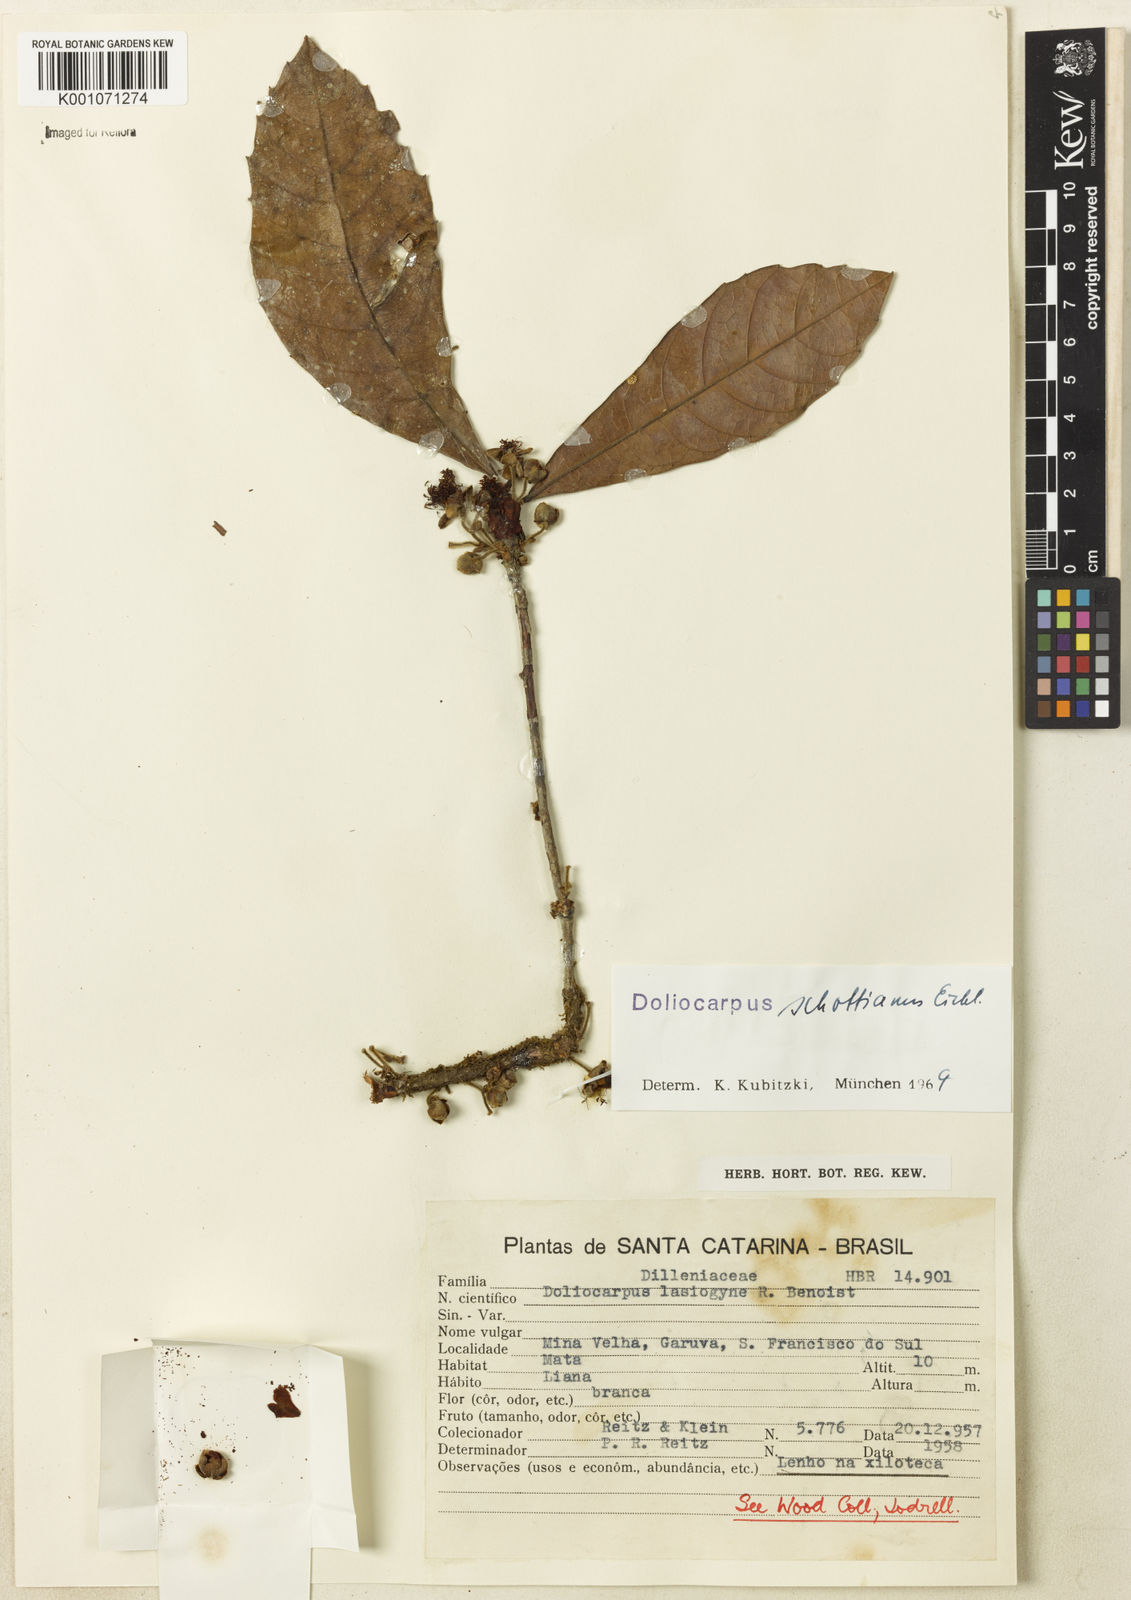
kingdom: Plantae
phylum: Tracheophyta
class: Magnoliopsida
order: Dilleniales
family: Dilleniaceae
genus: Doliocarpus
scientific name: Doliocarpus schottianus
